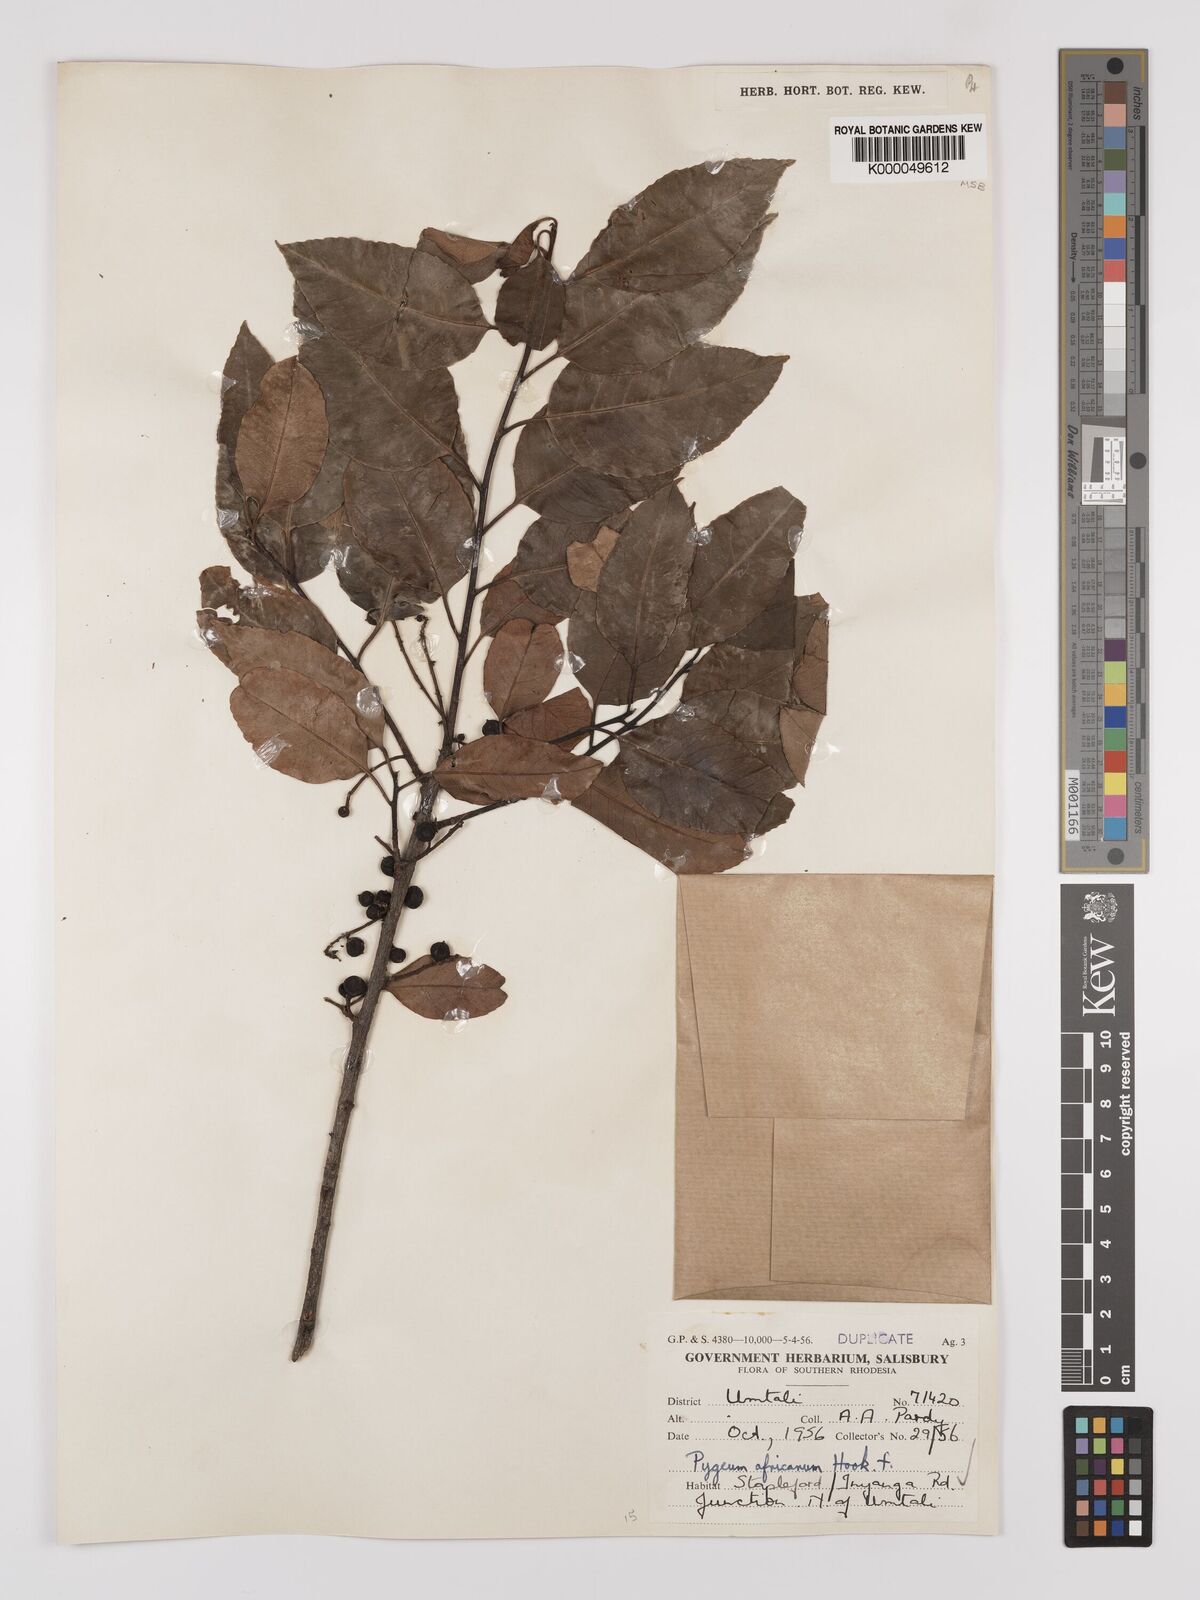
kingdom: Plantae
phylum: Tracheophyta
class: Magnoliopsida
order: Rosales
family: Rosaceae
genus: Prunus
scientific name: Prunus africana
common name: African cherry
